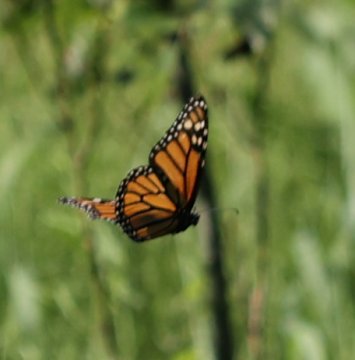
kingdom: Animalia
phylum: Arthropoda
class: Insecta
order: Lepidoptera
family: Nymphalidae
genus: Danaus
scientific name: Danaus plexippus
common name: Monarch
